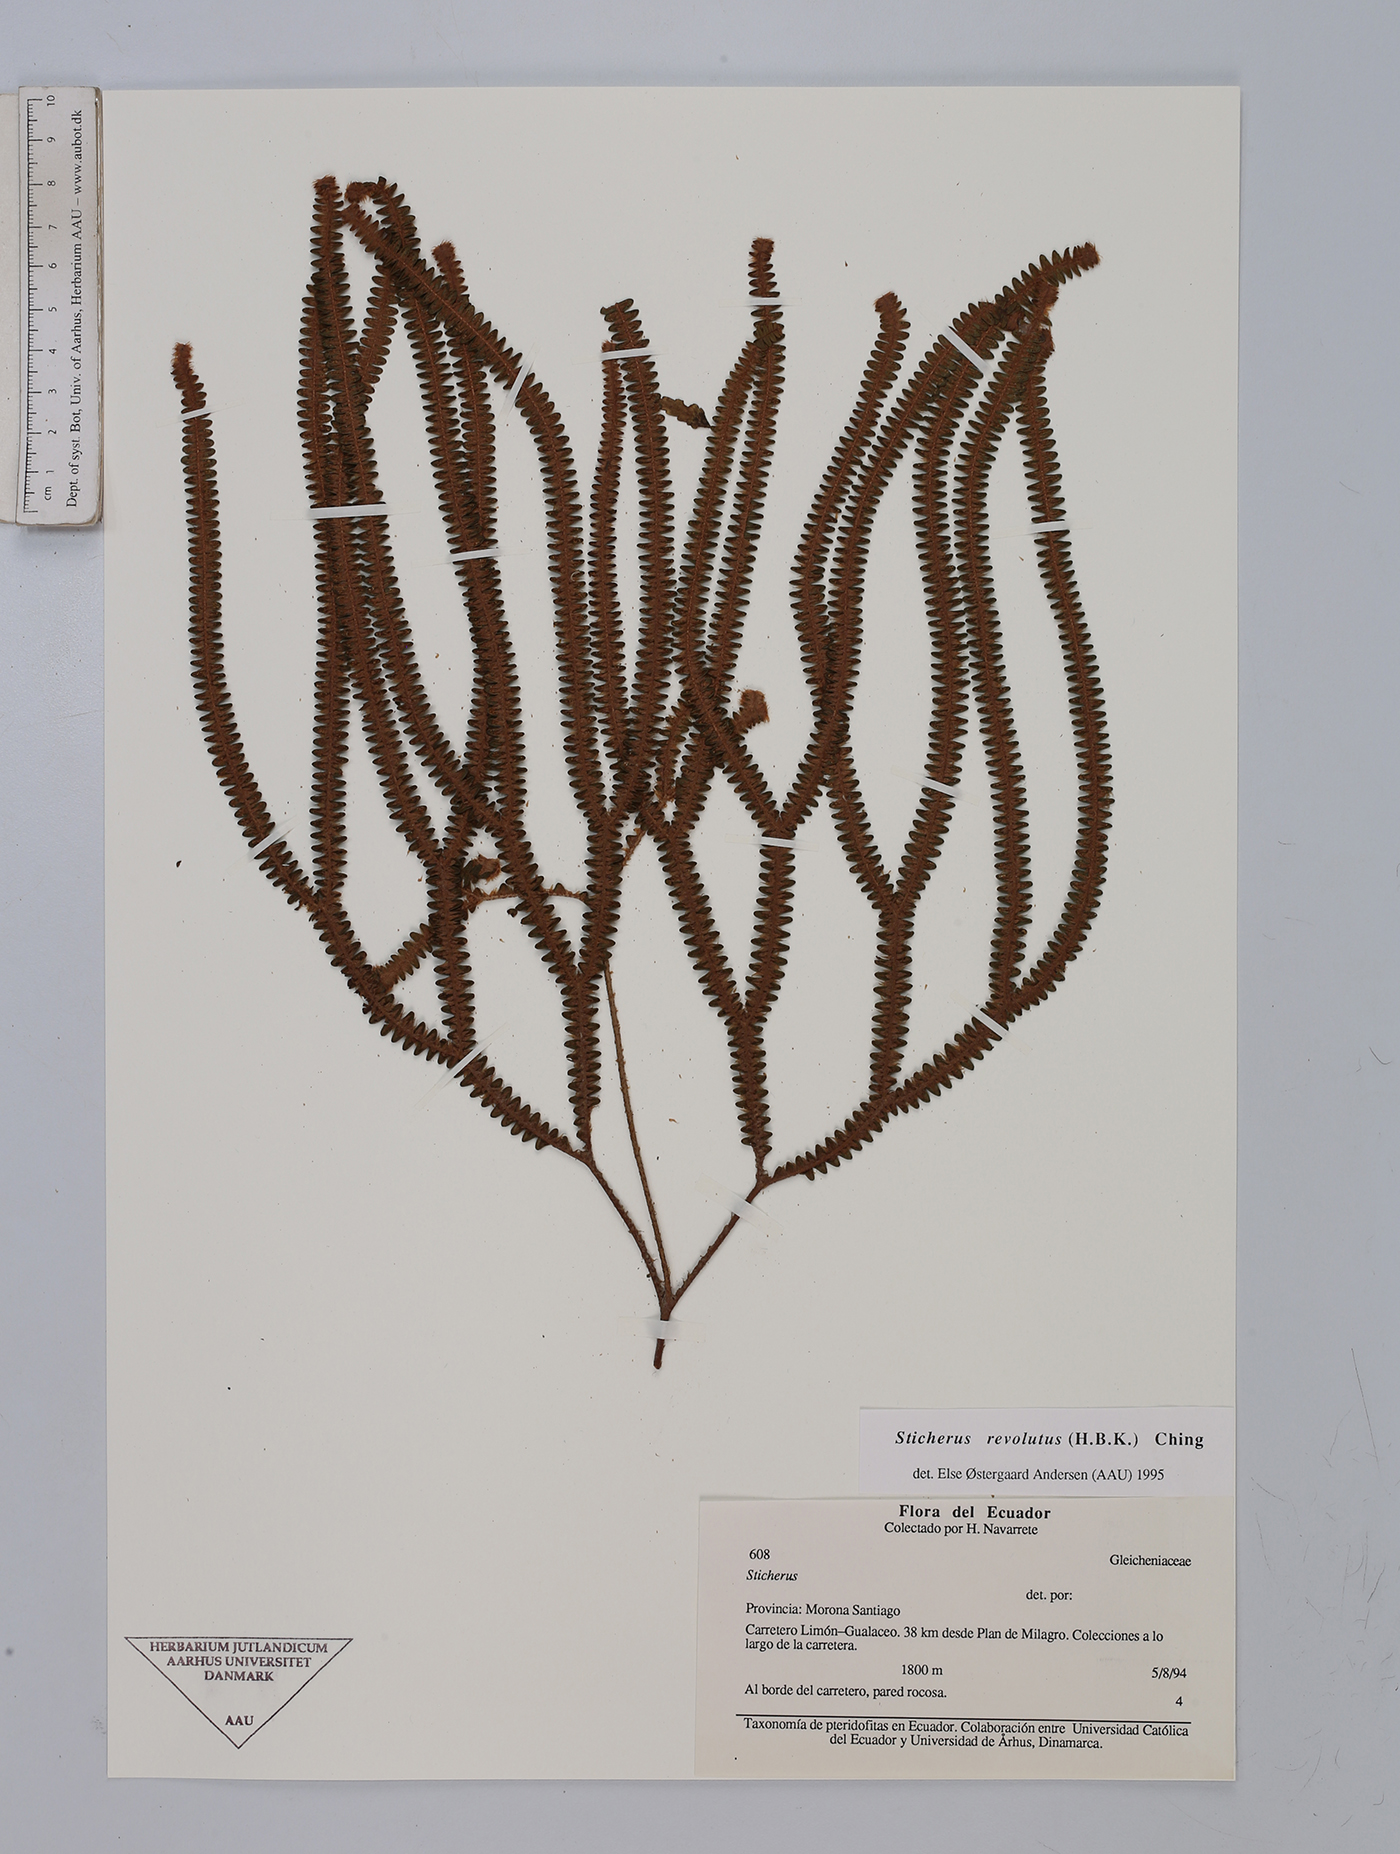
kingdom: Plantae
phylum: Tracheophyta
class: Polypodiopsida
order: Gleicheniales
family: Gleicheniaceae
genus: Sticherus
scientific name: Sticherus revolutus
